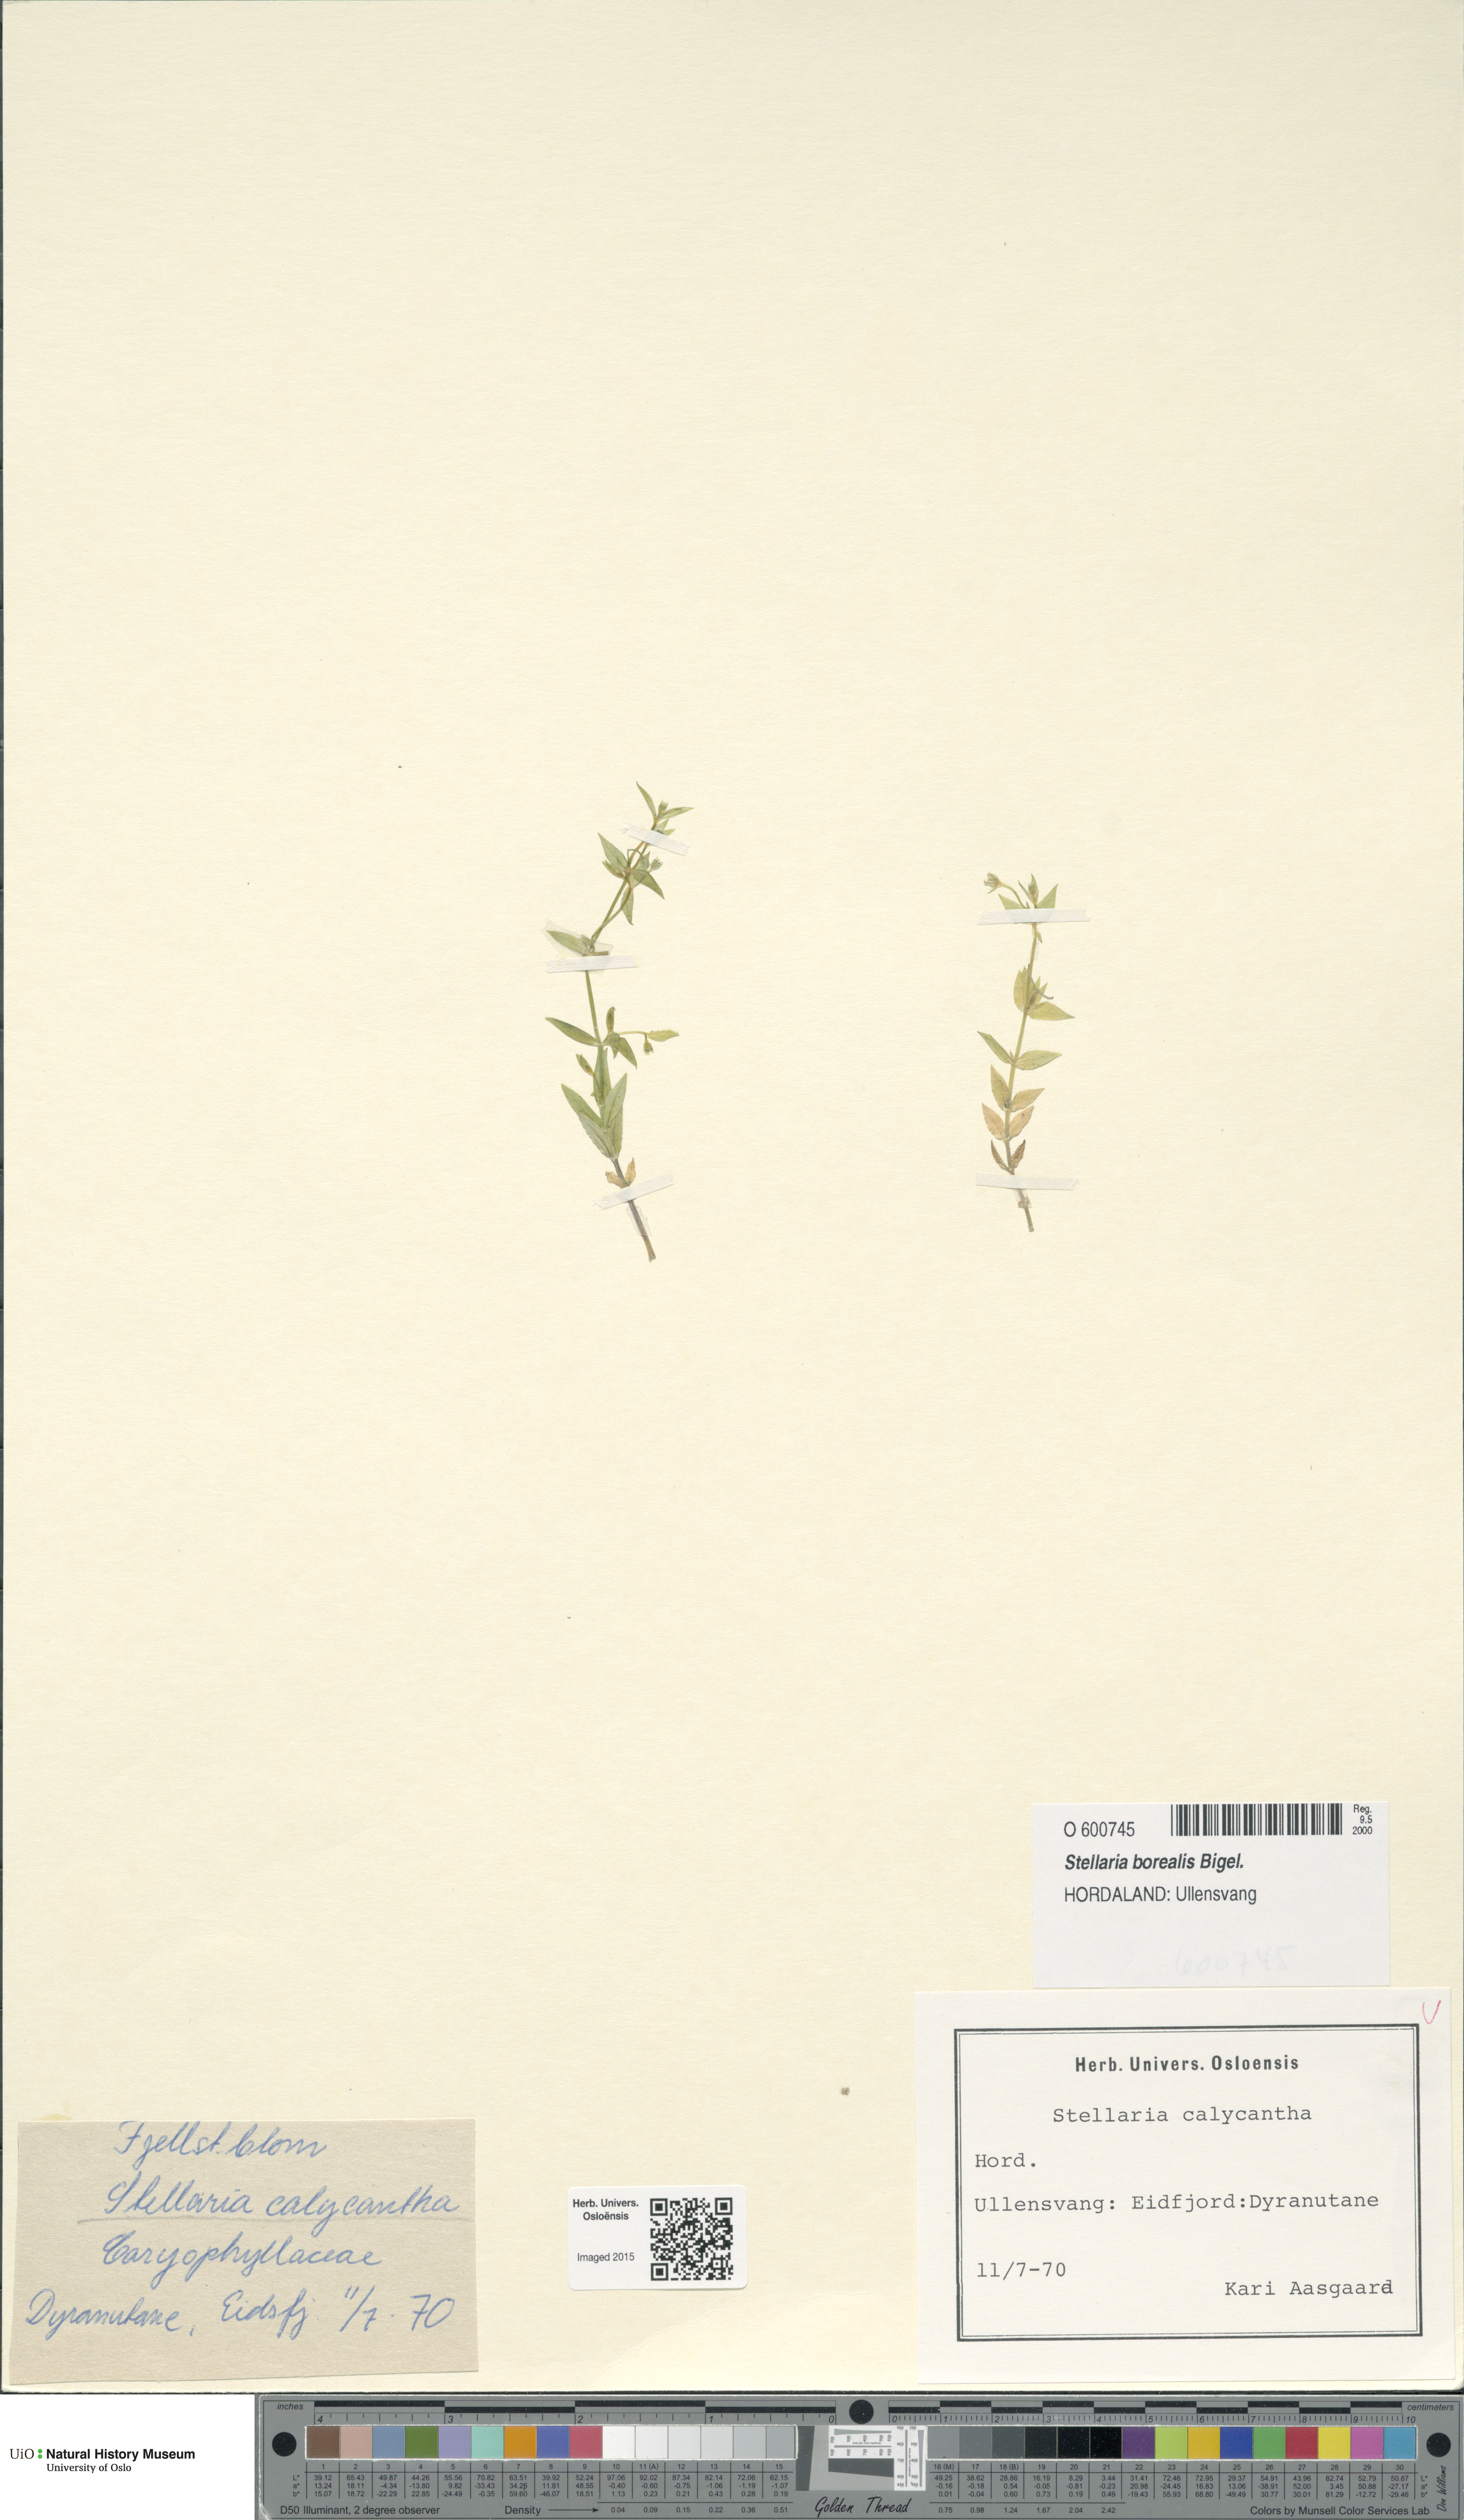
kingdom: Plantae
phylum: Tracheophyta
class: Magnoliopsida
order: Caryophyllales
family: Caryophyllaceae
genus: Stellaria
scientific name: Stellaria borealis
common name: Boreal starwort
